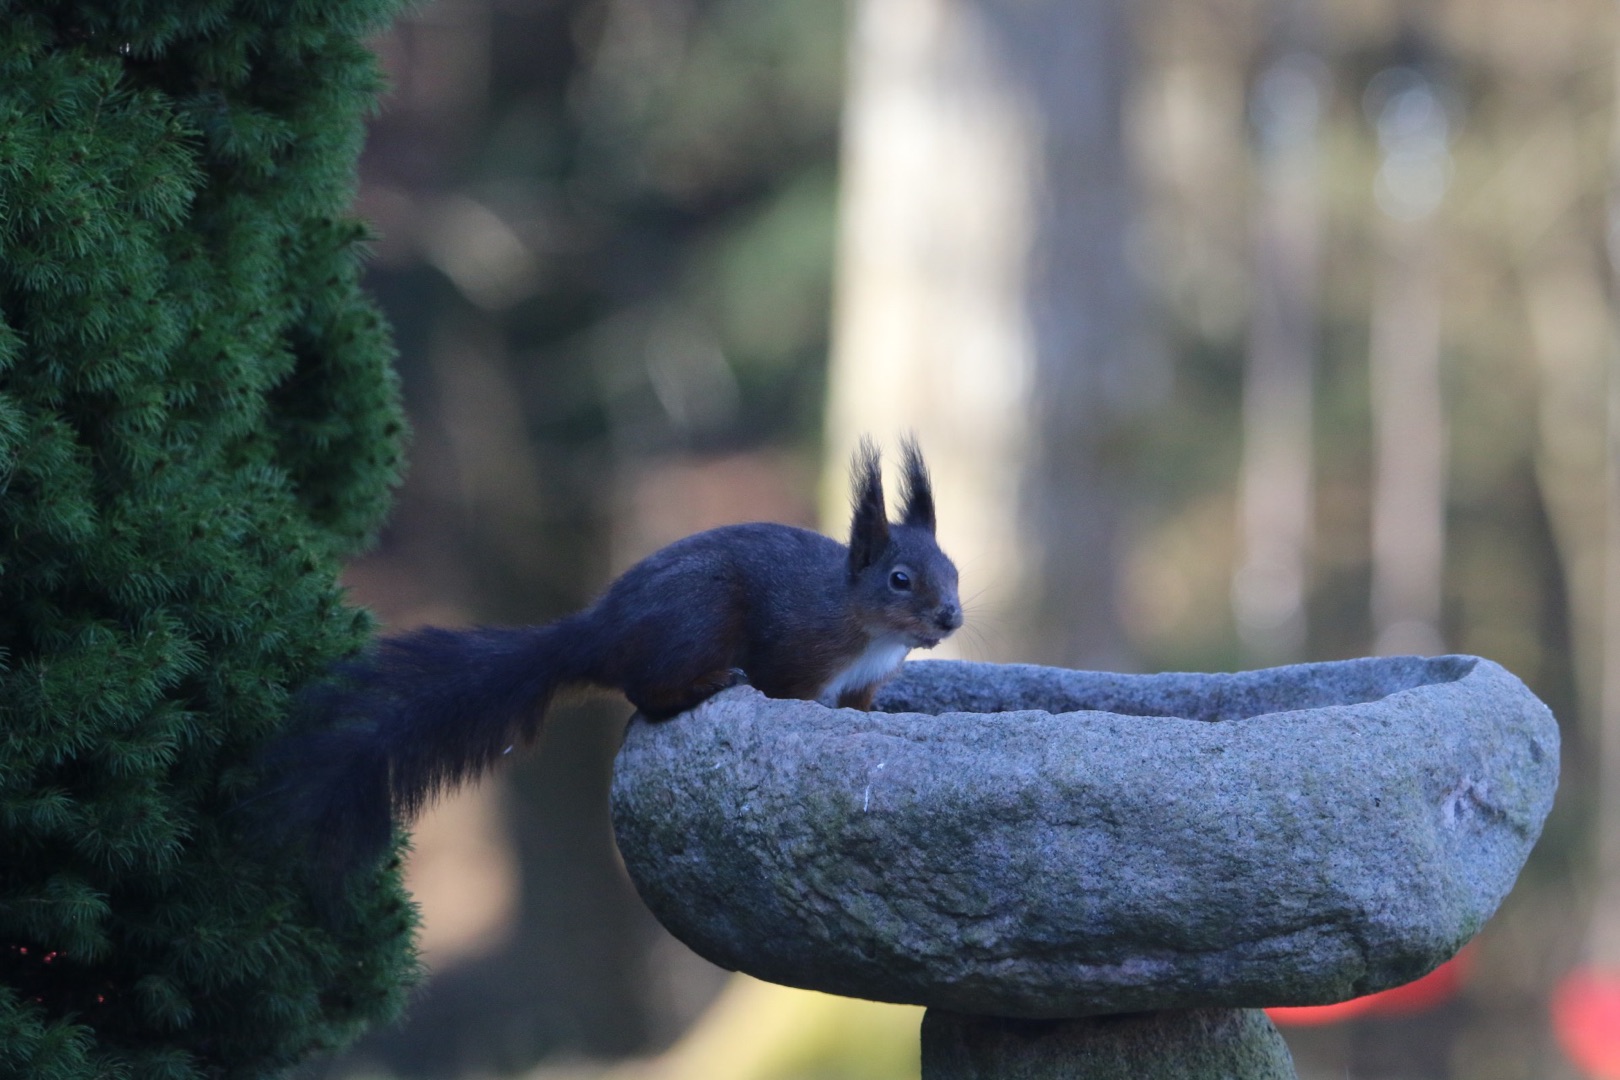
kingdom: Animalia
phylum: Chordata
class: Mammalia
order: Rodentia
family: Sciuridae
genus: Sciurus
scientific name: Sciurus vulgaris
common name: Egern
